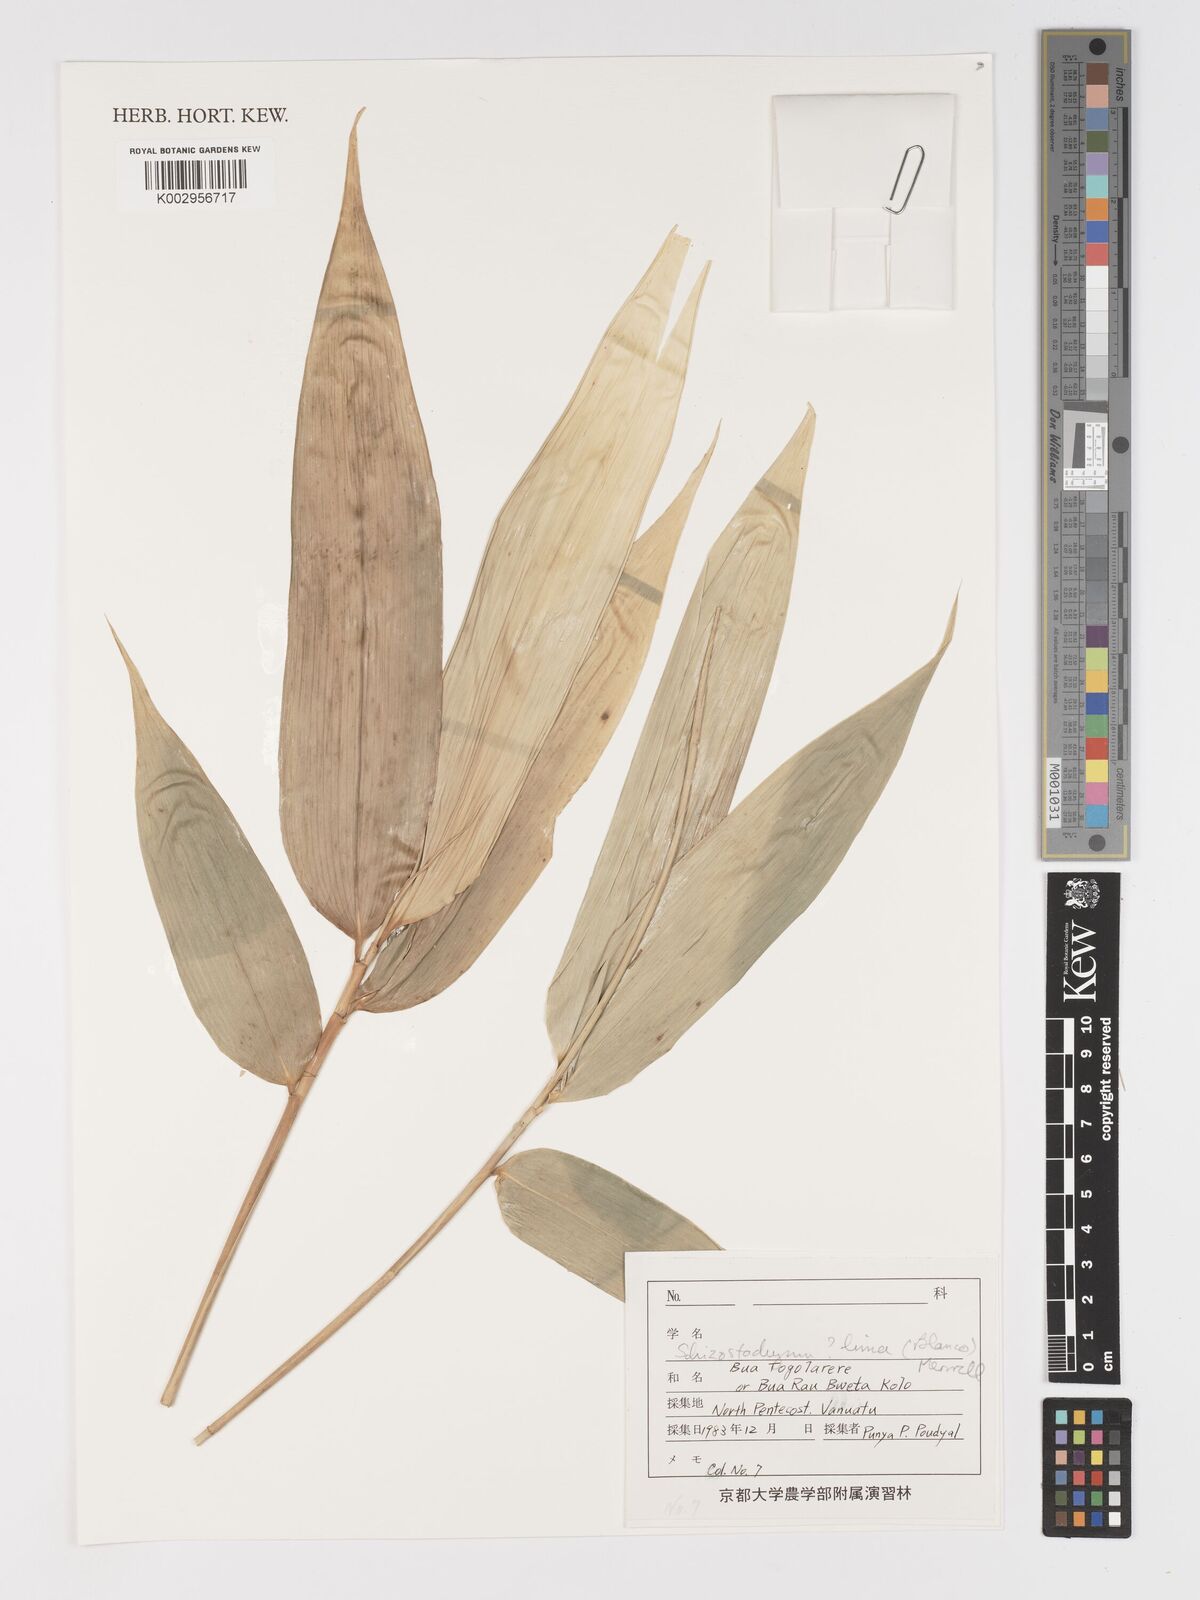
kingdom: Plantae
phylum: Tracheophyta
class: Liliopsida
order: Poales
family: Poaceae
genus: Schizostachyum
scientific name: Schizostachyum
